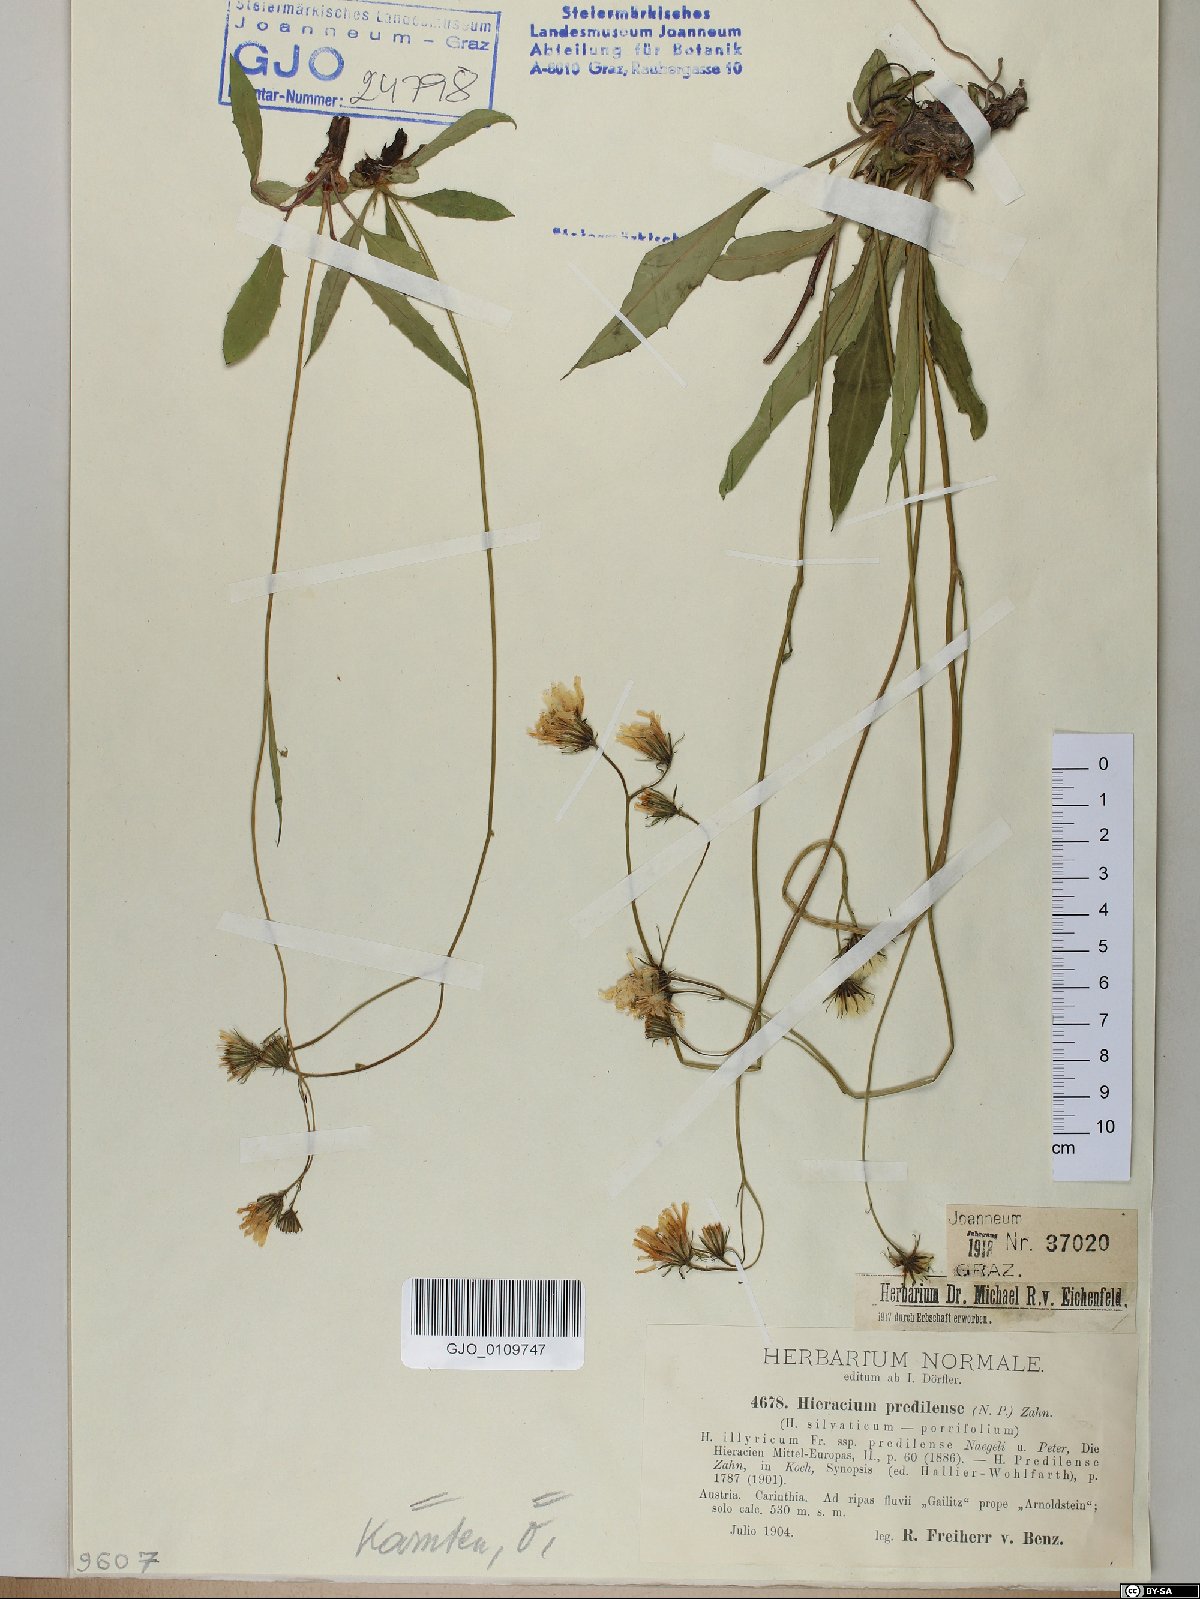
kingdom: Plantae
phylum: Tracheophyta
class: Magnoliopsida
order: Asterales
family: Asteraceae
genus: Hieracium
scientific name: Hieracium prediliense
